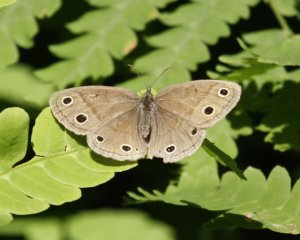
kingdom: Animalia
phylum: Arthropoda
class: Insecta
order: Lepidoptera
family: Nymphalidae
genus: Euptychia
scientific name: Euptychia cymela
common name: Little Wood Satyr
